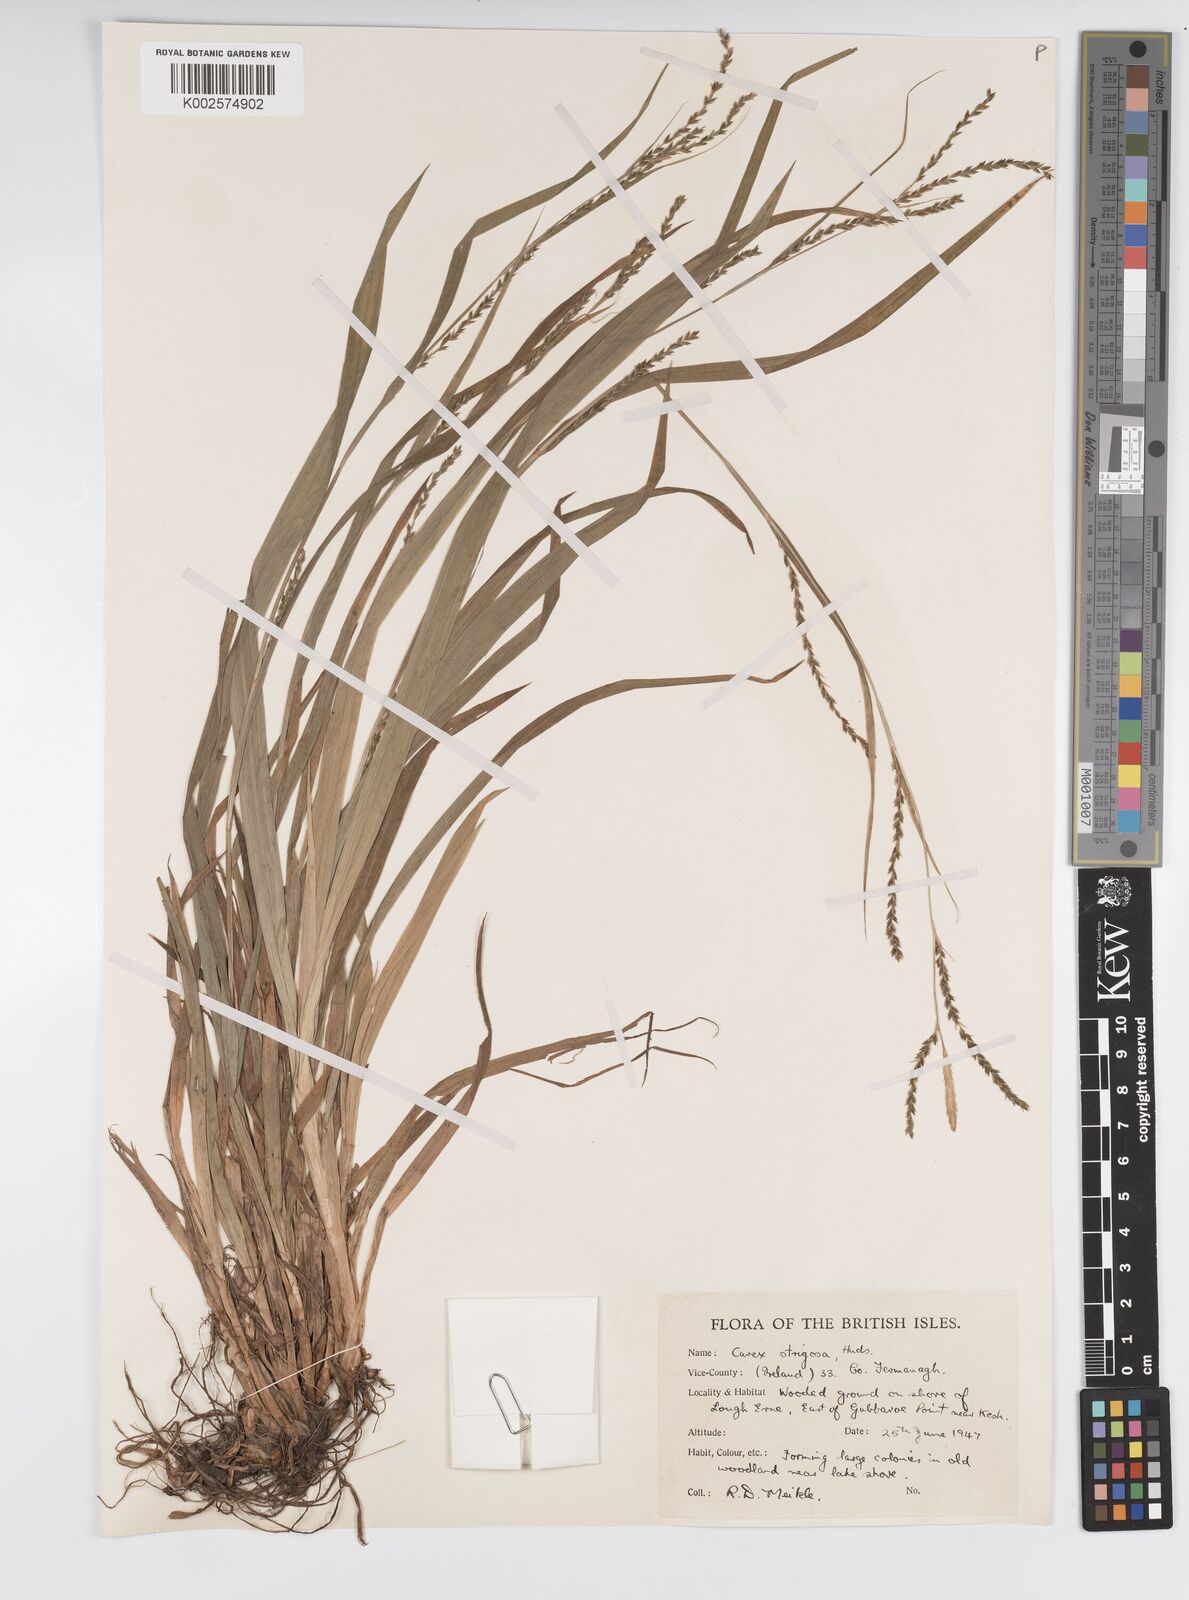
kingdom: Plantae
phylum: Tracheophyta
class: Liliopsida
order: Poales
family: Cyperaceae
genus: Carex
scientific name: Carex strigosa
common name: Thin-spiked wood-sedge
